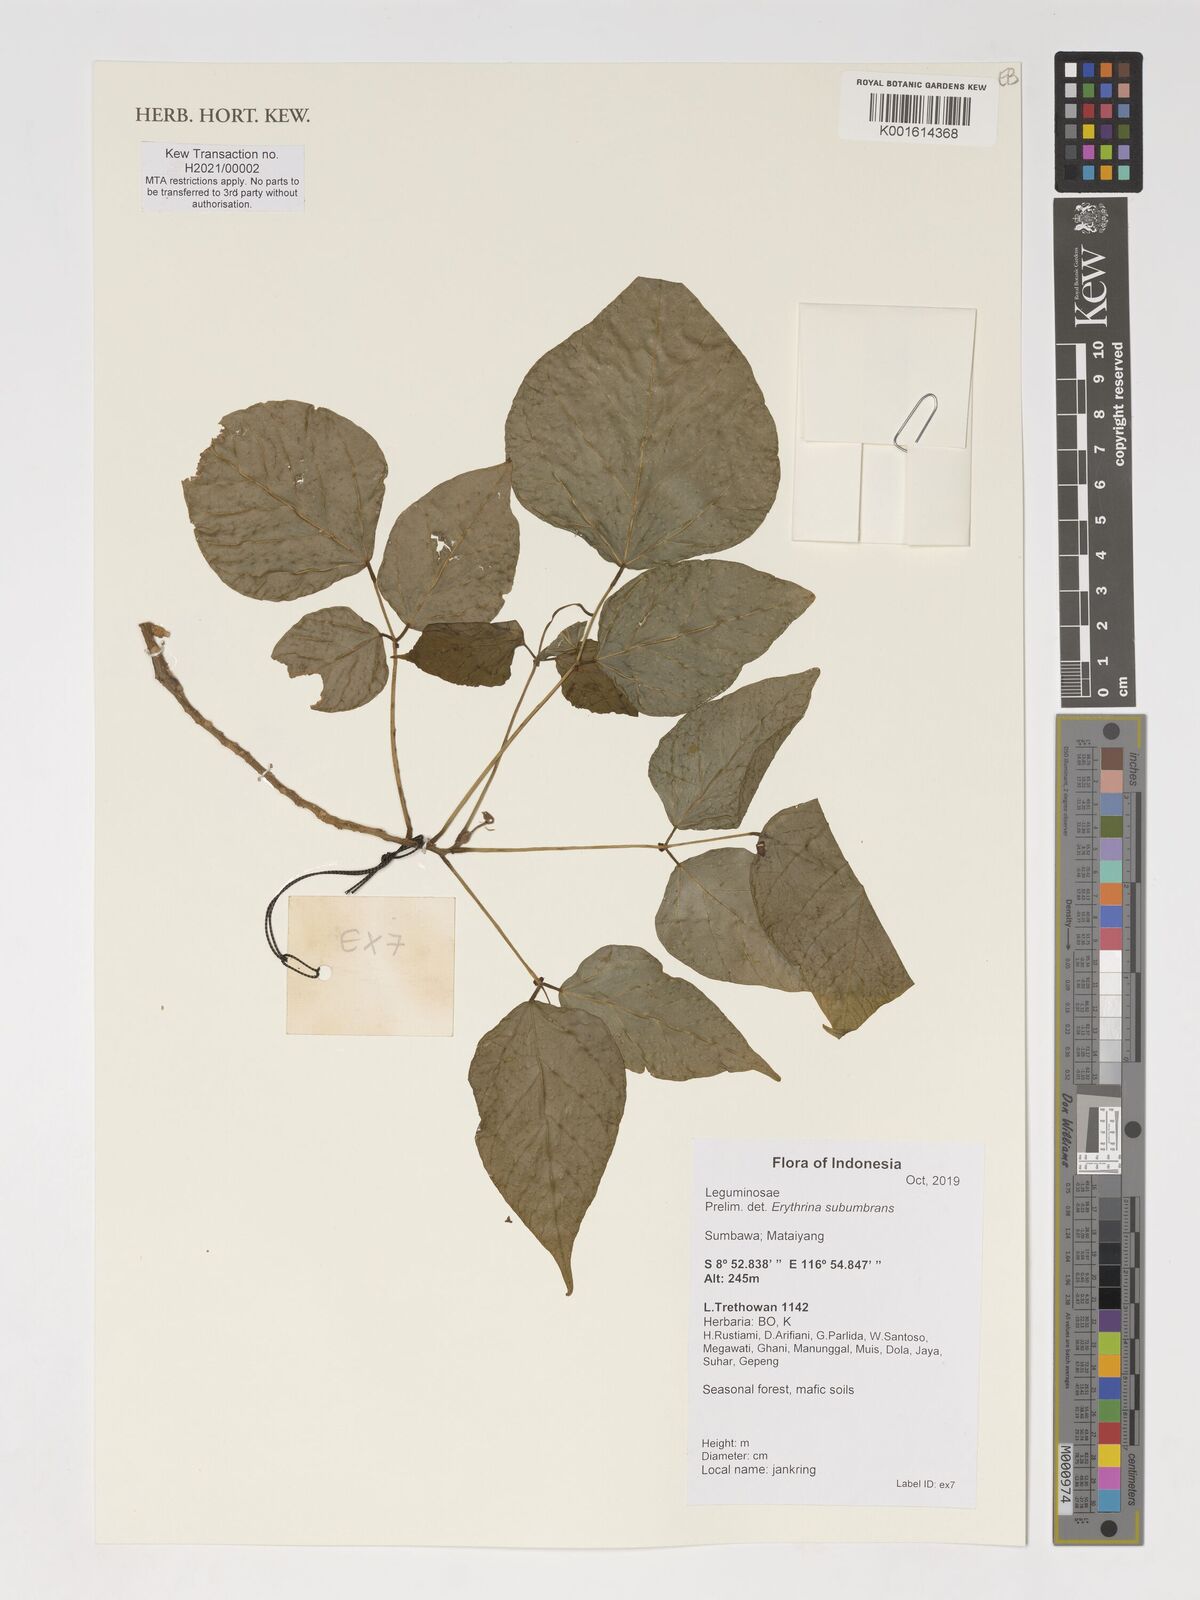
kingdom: Plantae
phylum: Tracheophyta
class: Magnoliopsida
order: Fabales
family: Fabaceae
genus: Erythrina
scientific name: Erythrina subumbrans
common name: December-tree
